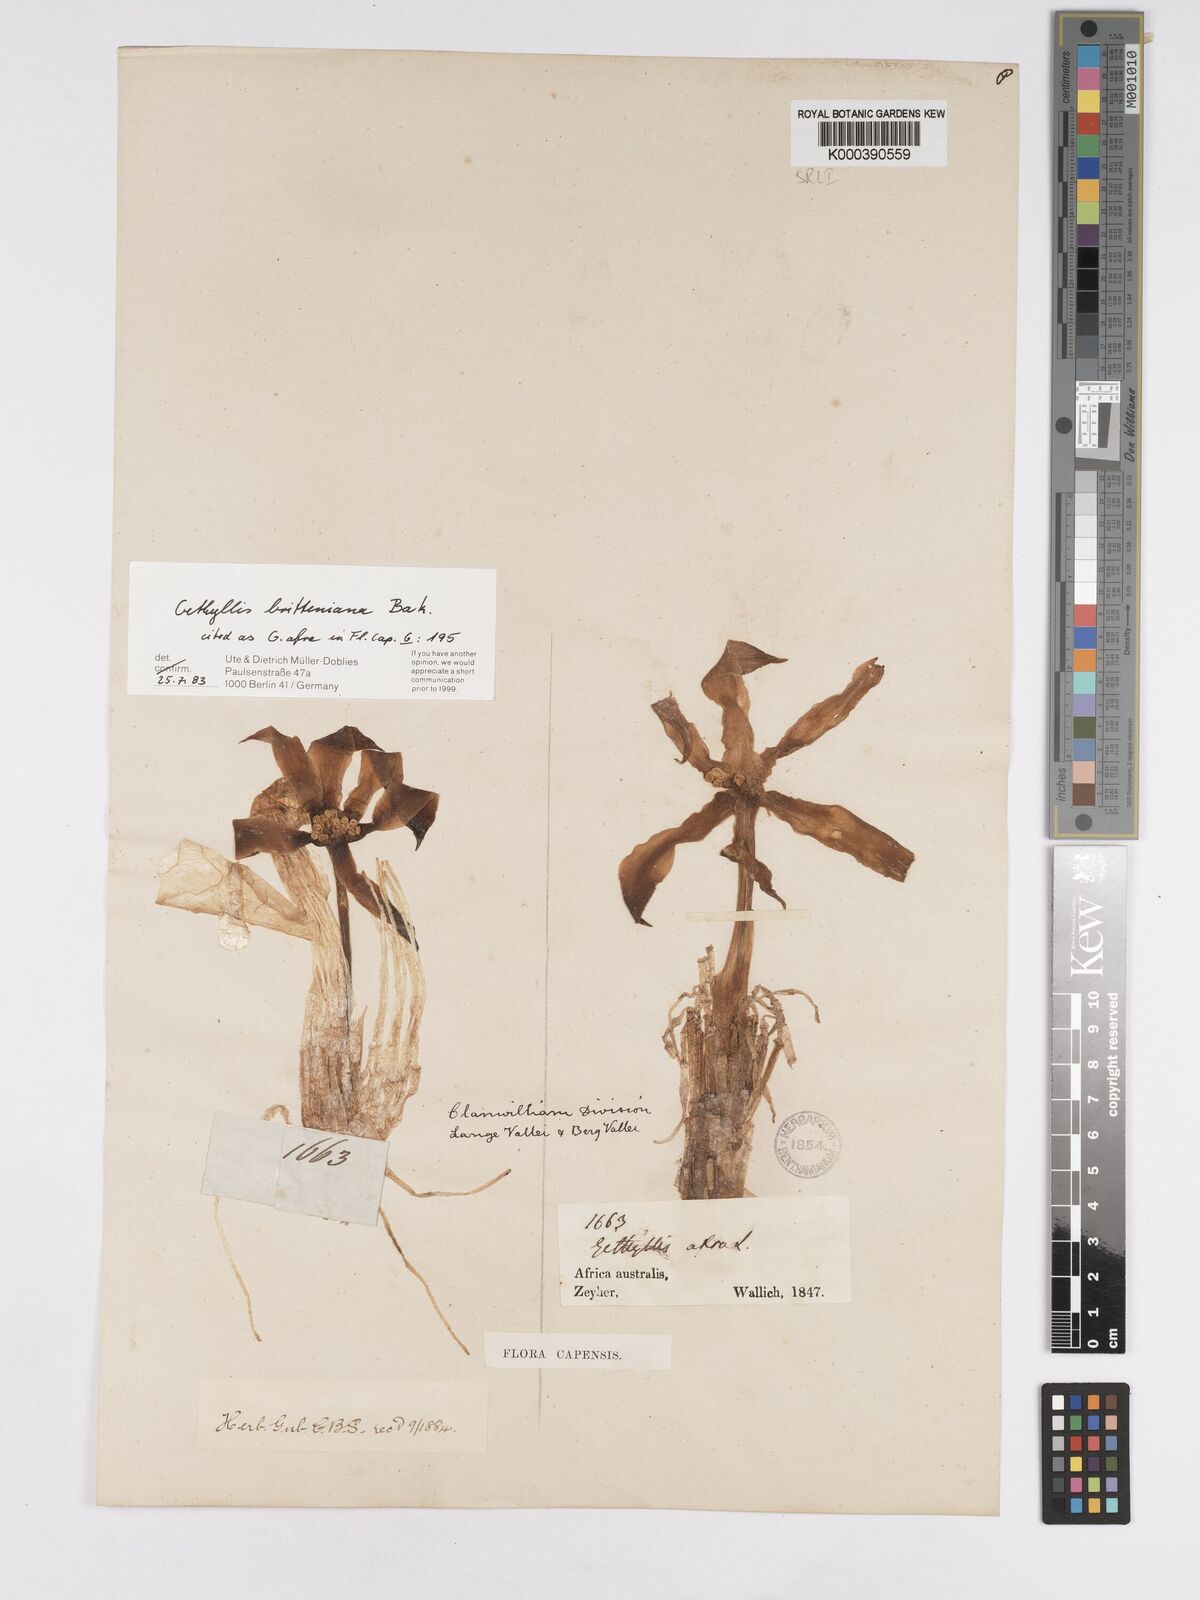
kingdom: Plantae
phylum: Tracheophyta
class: Liliopsida
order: Asparagales
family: Amaryllidaceae
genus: Gethyllis
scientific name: Gethyllis britteniana
